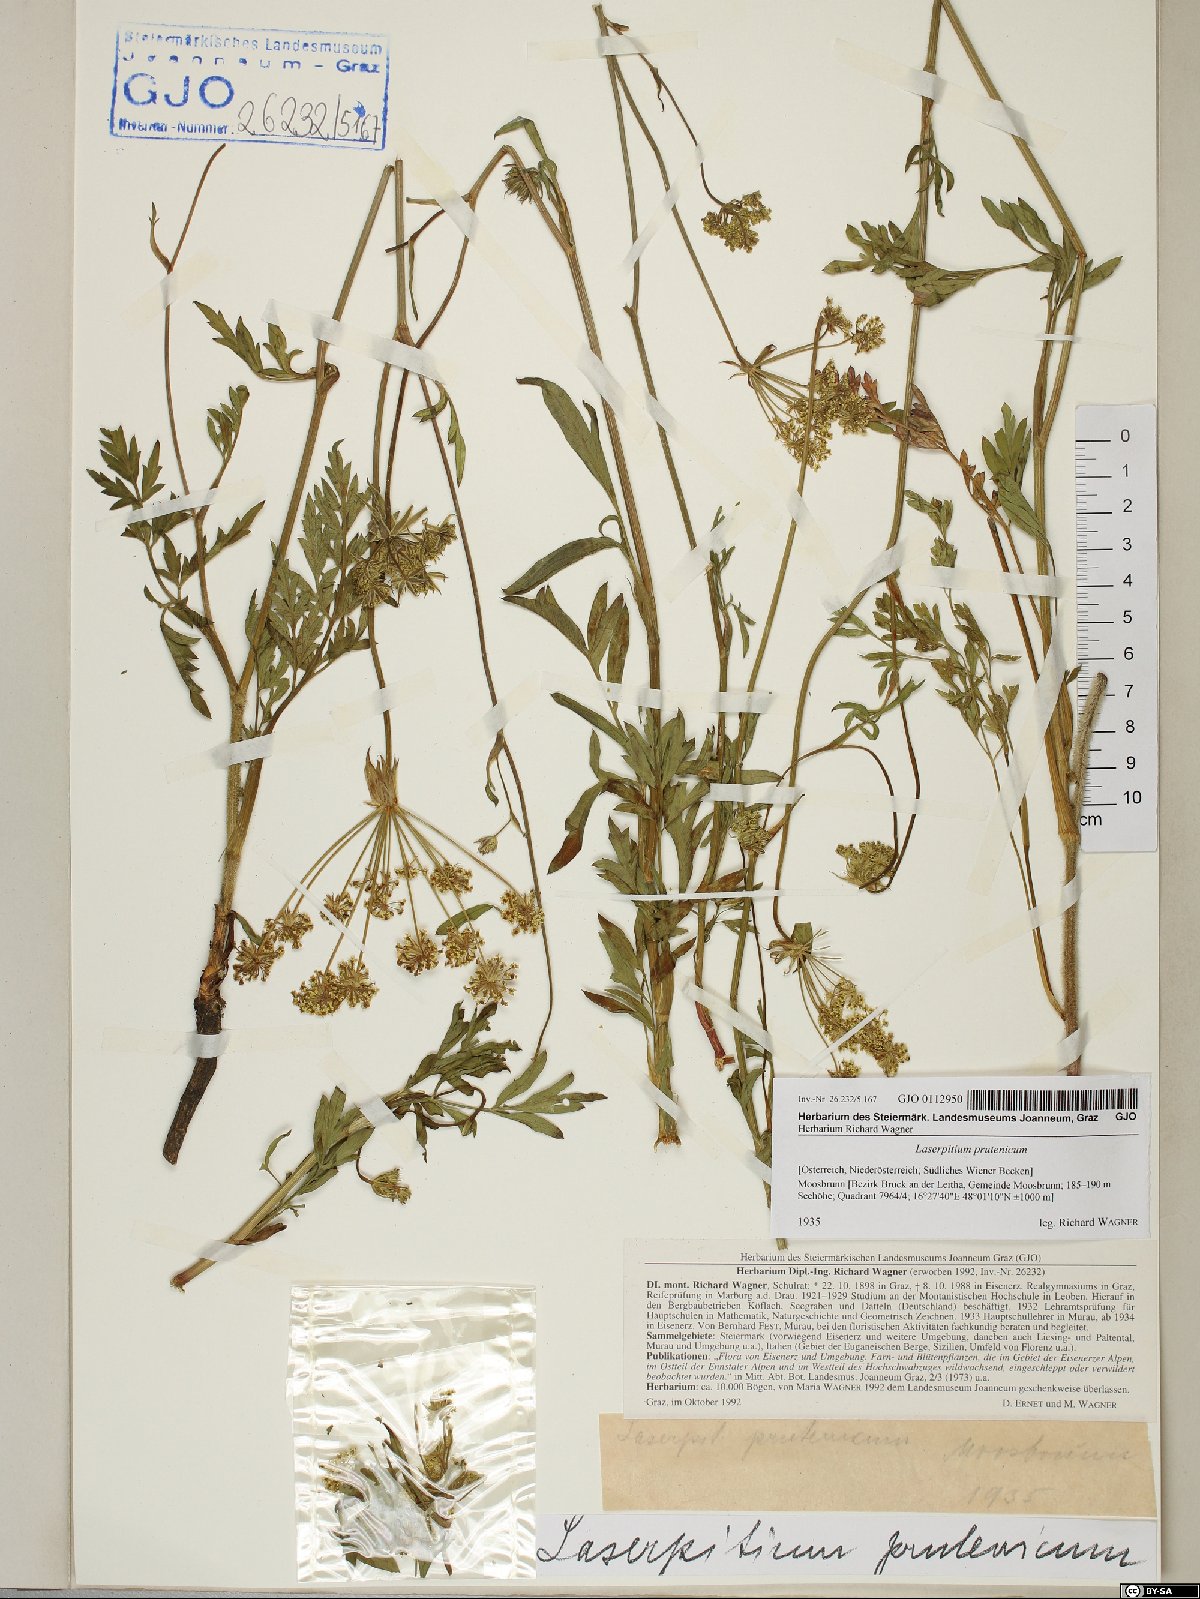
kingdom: Plantae
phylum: Tracheophyta
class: Magnoliopsida
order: Apiales
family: Apiaceae
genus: Silphiodaucus
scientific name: Silphiodaucus prutenicus
